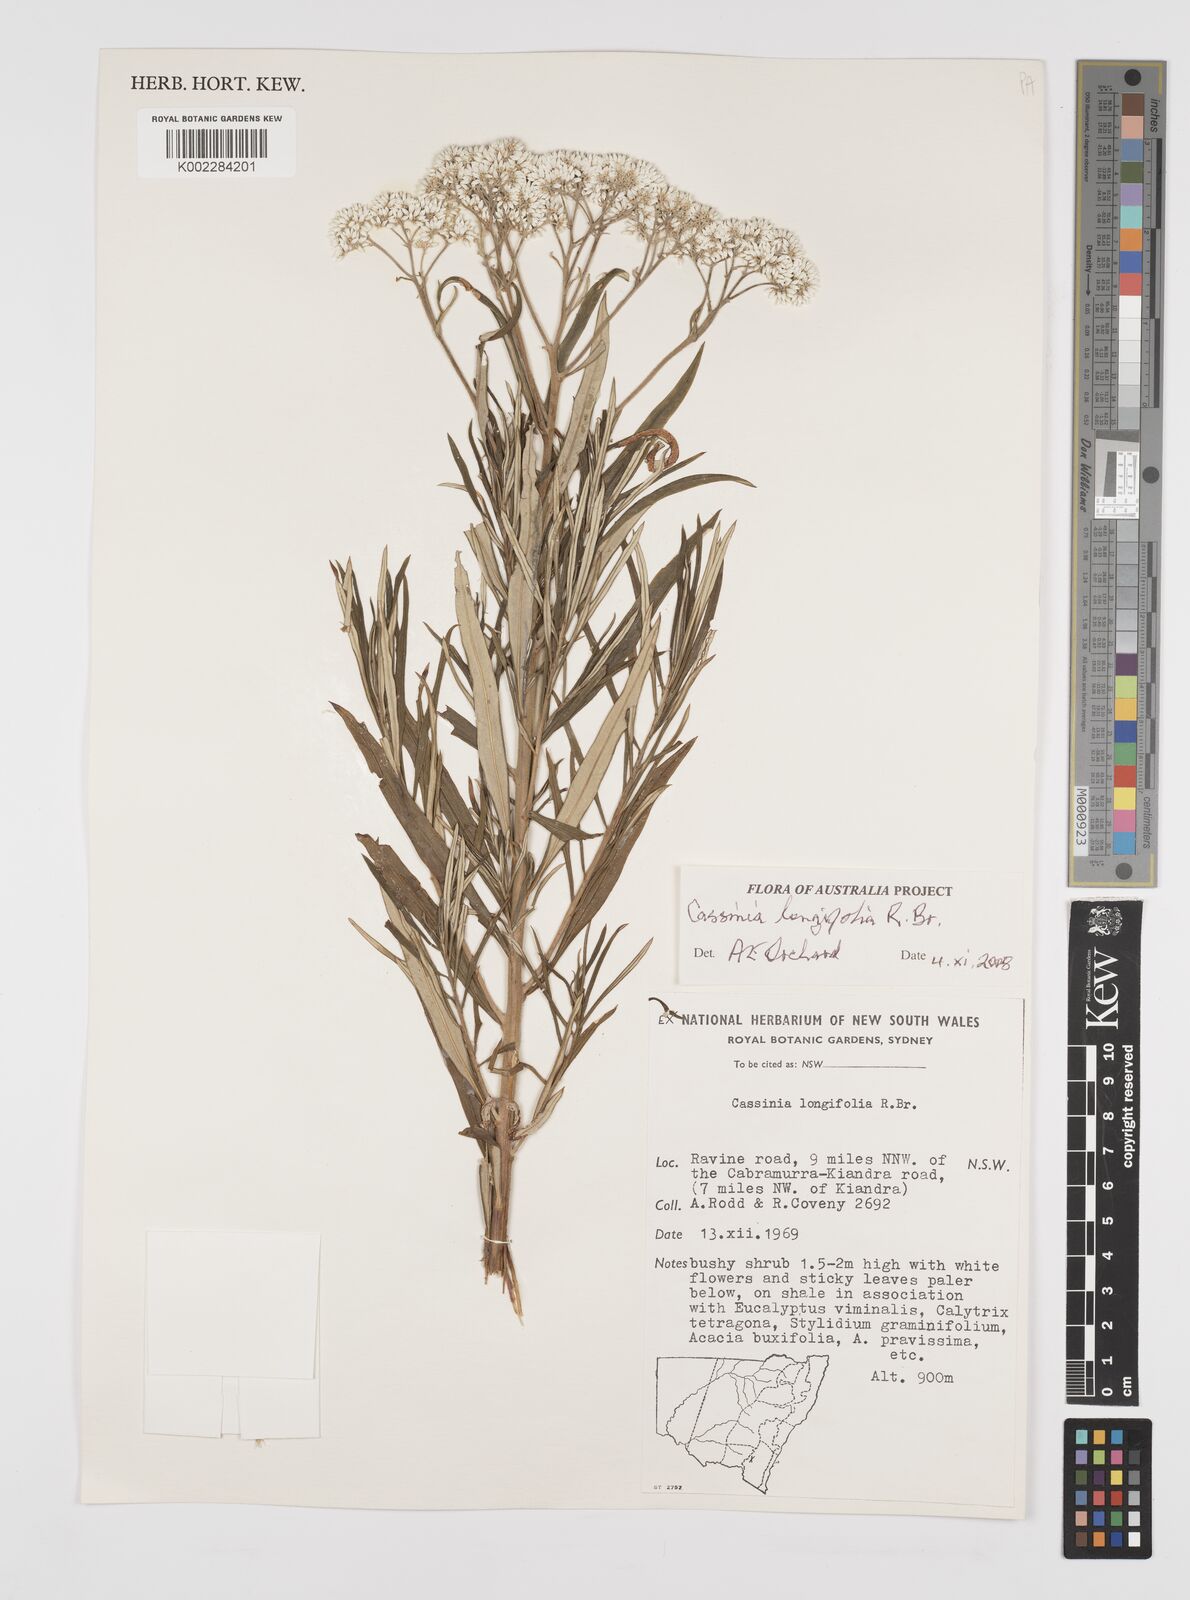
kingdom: Plantae
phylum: Tracheophyta
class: Magnoliopsida
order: Asterales
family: Asteraceae
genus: Cassinia
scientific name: Cassinia longifolia
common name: Longleaf-dogwood
